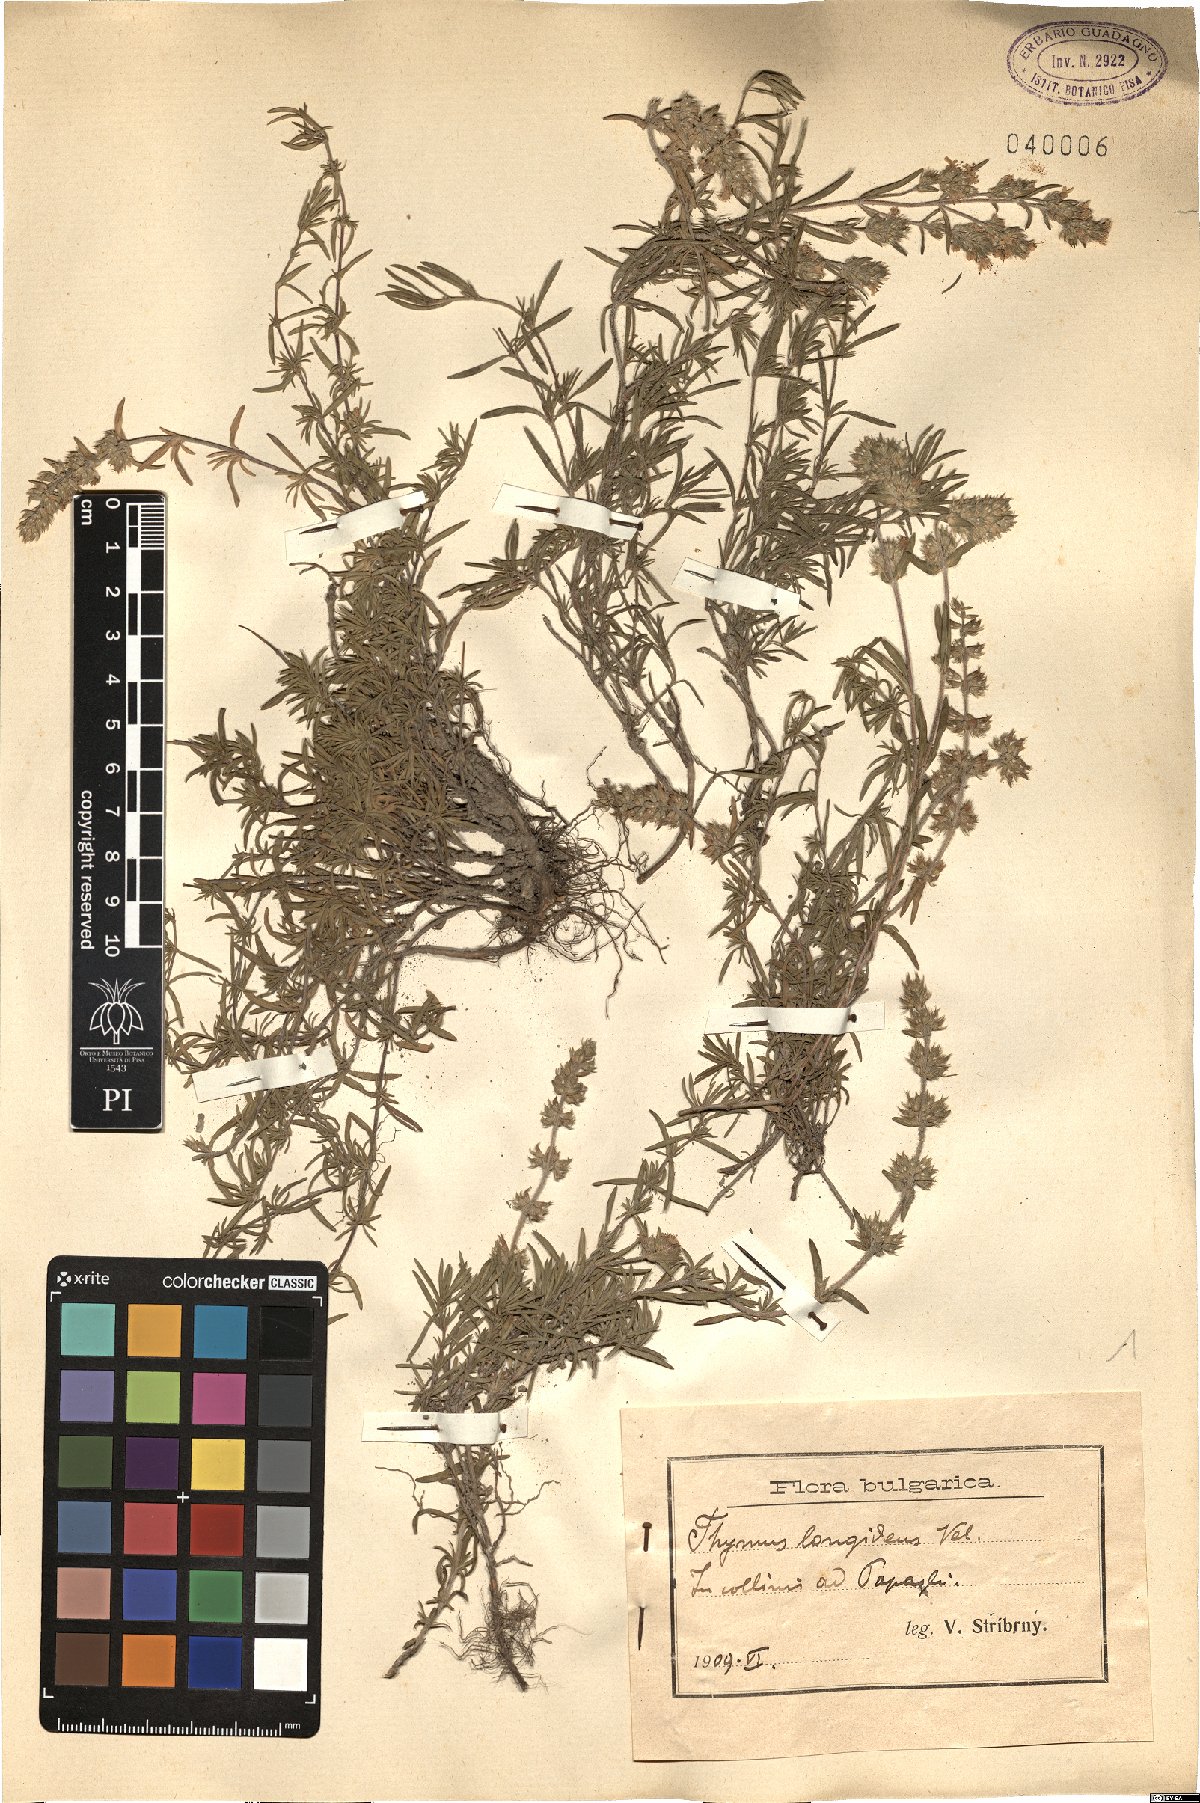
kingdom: Plantae
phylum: Tracheophyta
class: Magnoliopsida
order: Lamiales
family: Lamiaceae
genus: Thymus
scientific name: Thymus thracicus
